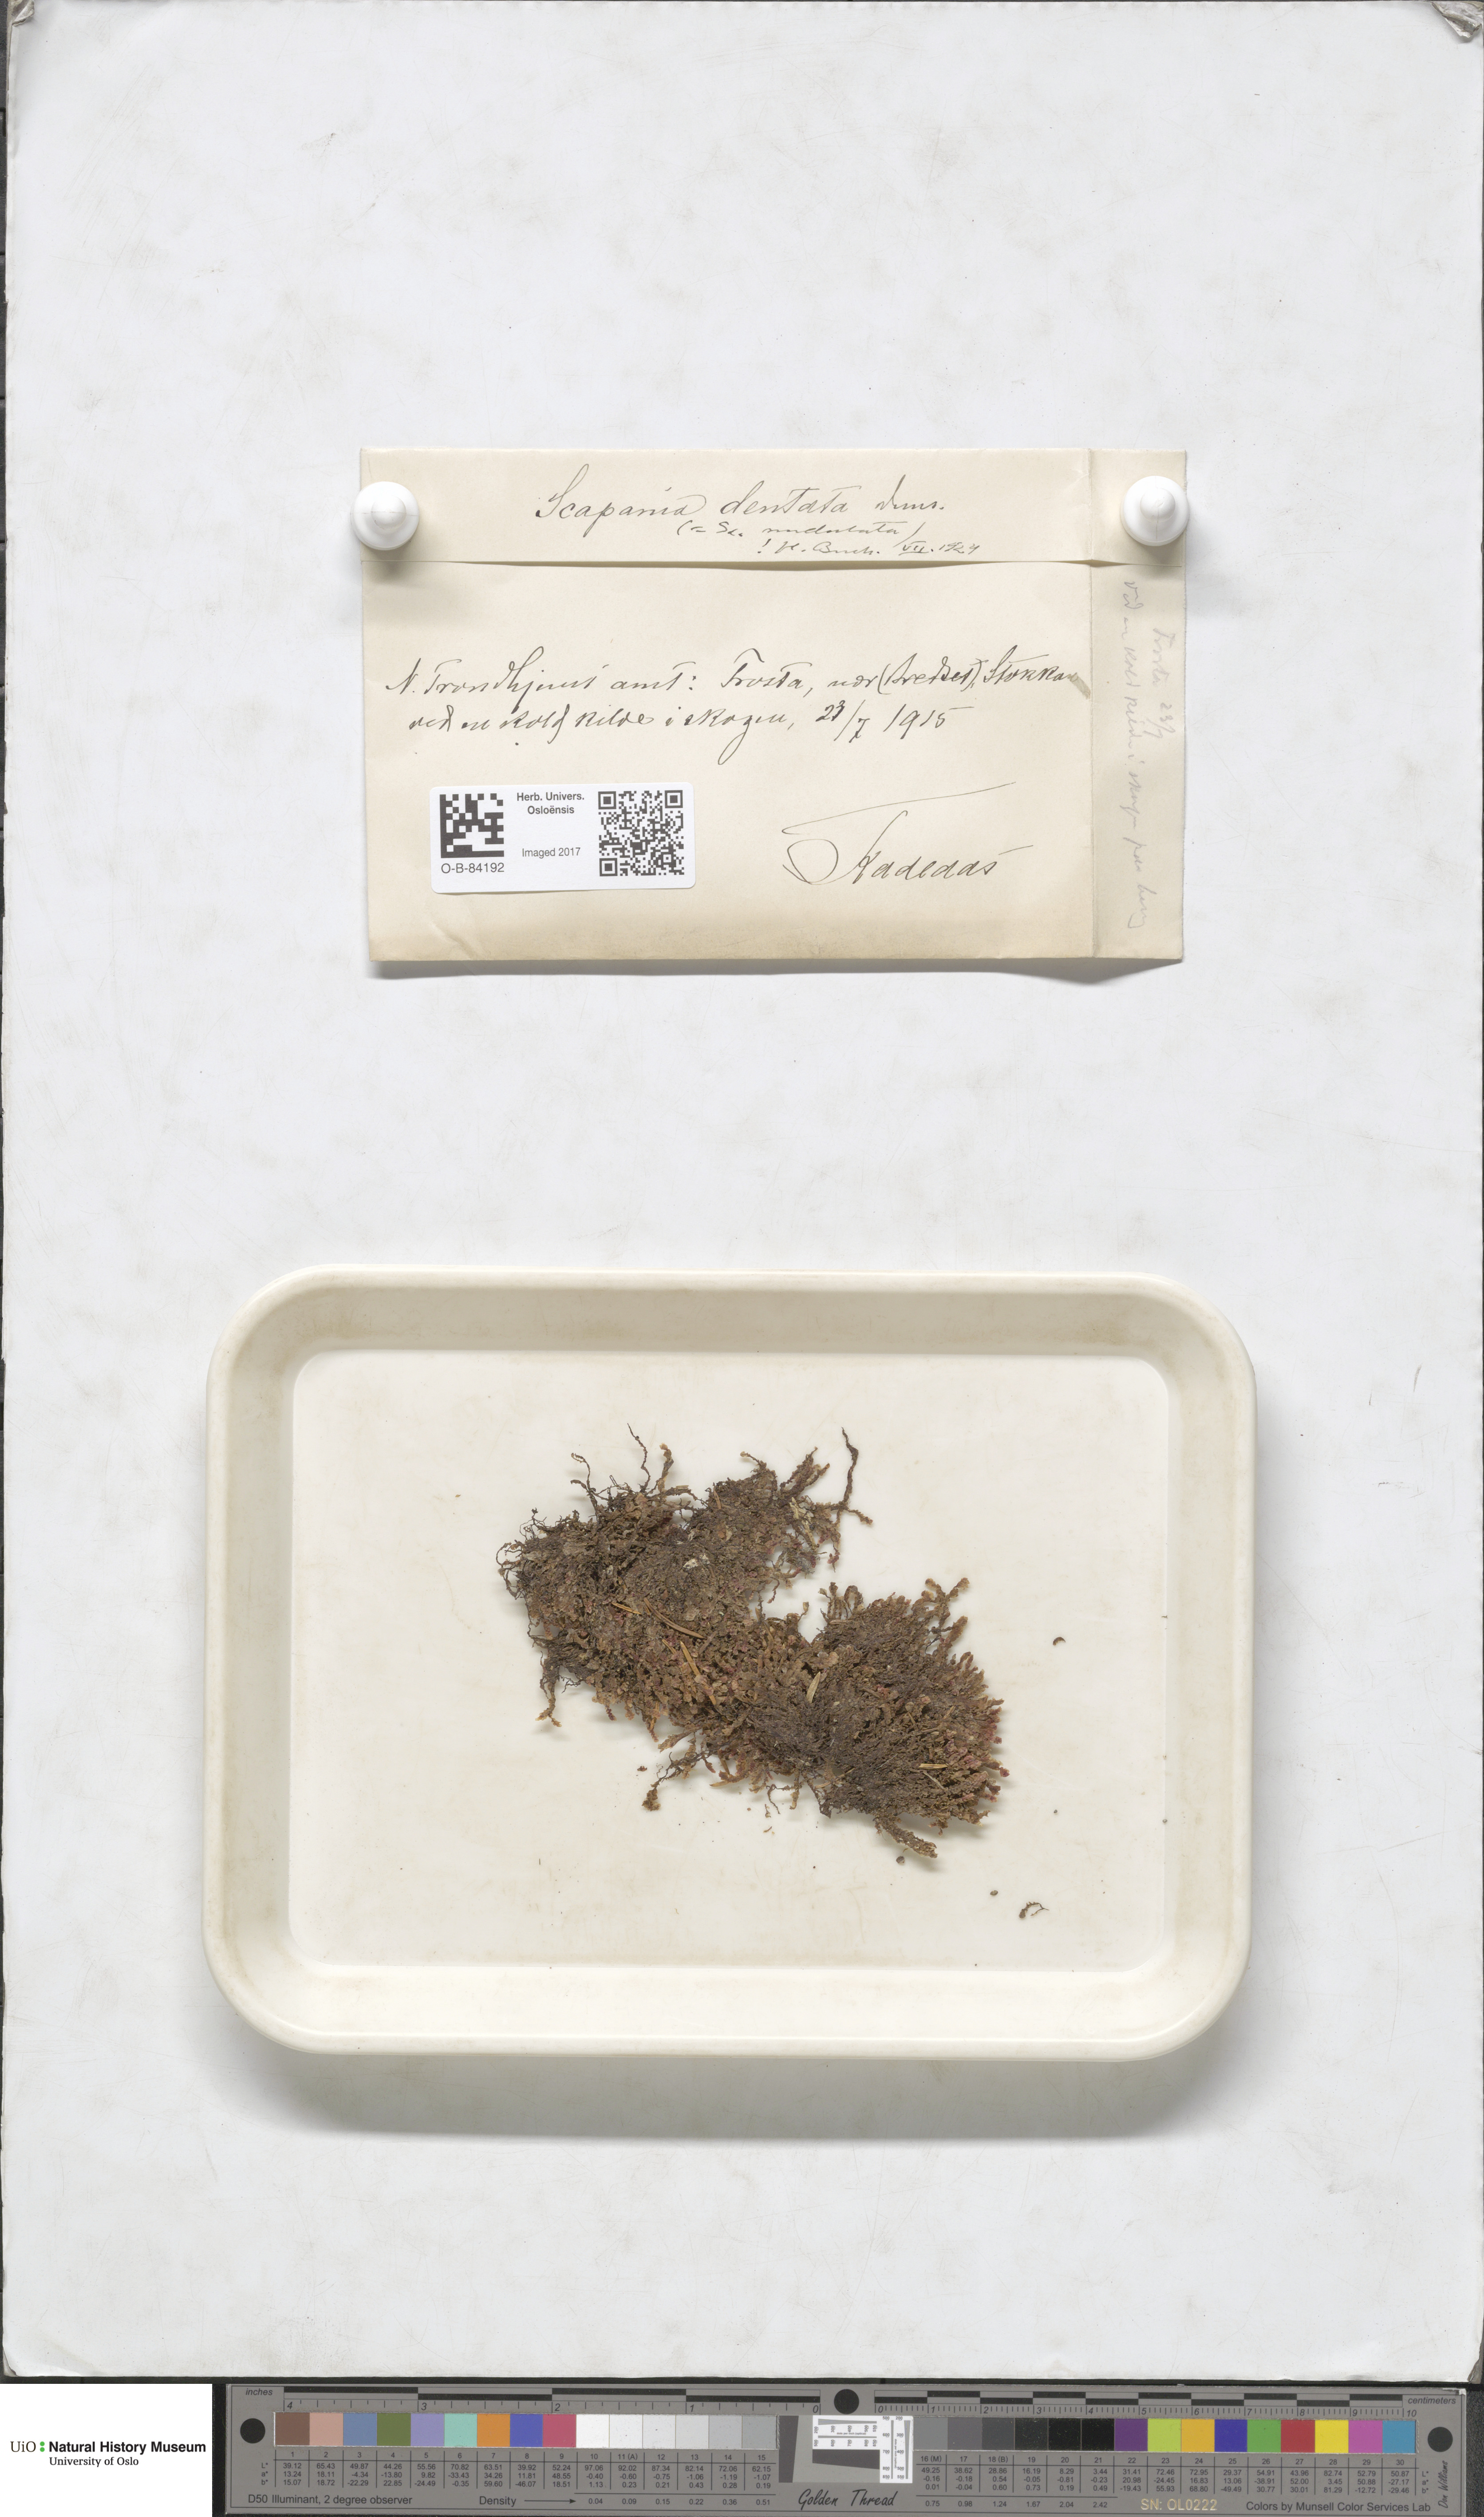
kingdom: Plantae
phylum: Marchantiophyta
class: Jungermanniopsida
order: Jungermanniales
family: Scapaniaceae
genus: Scapania
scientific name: Scapania undulata
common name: Water earwort
